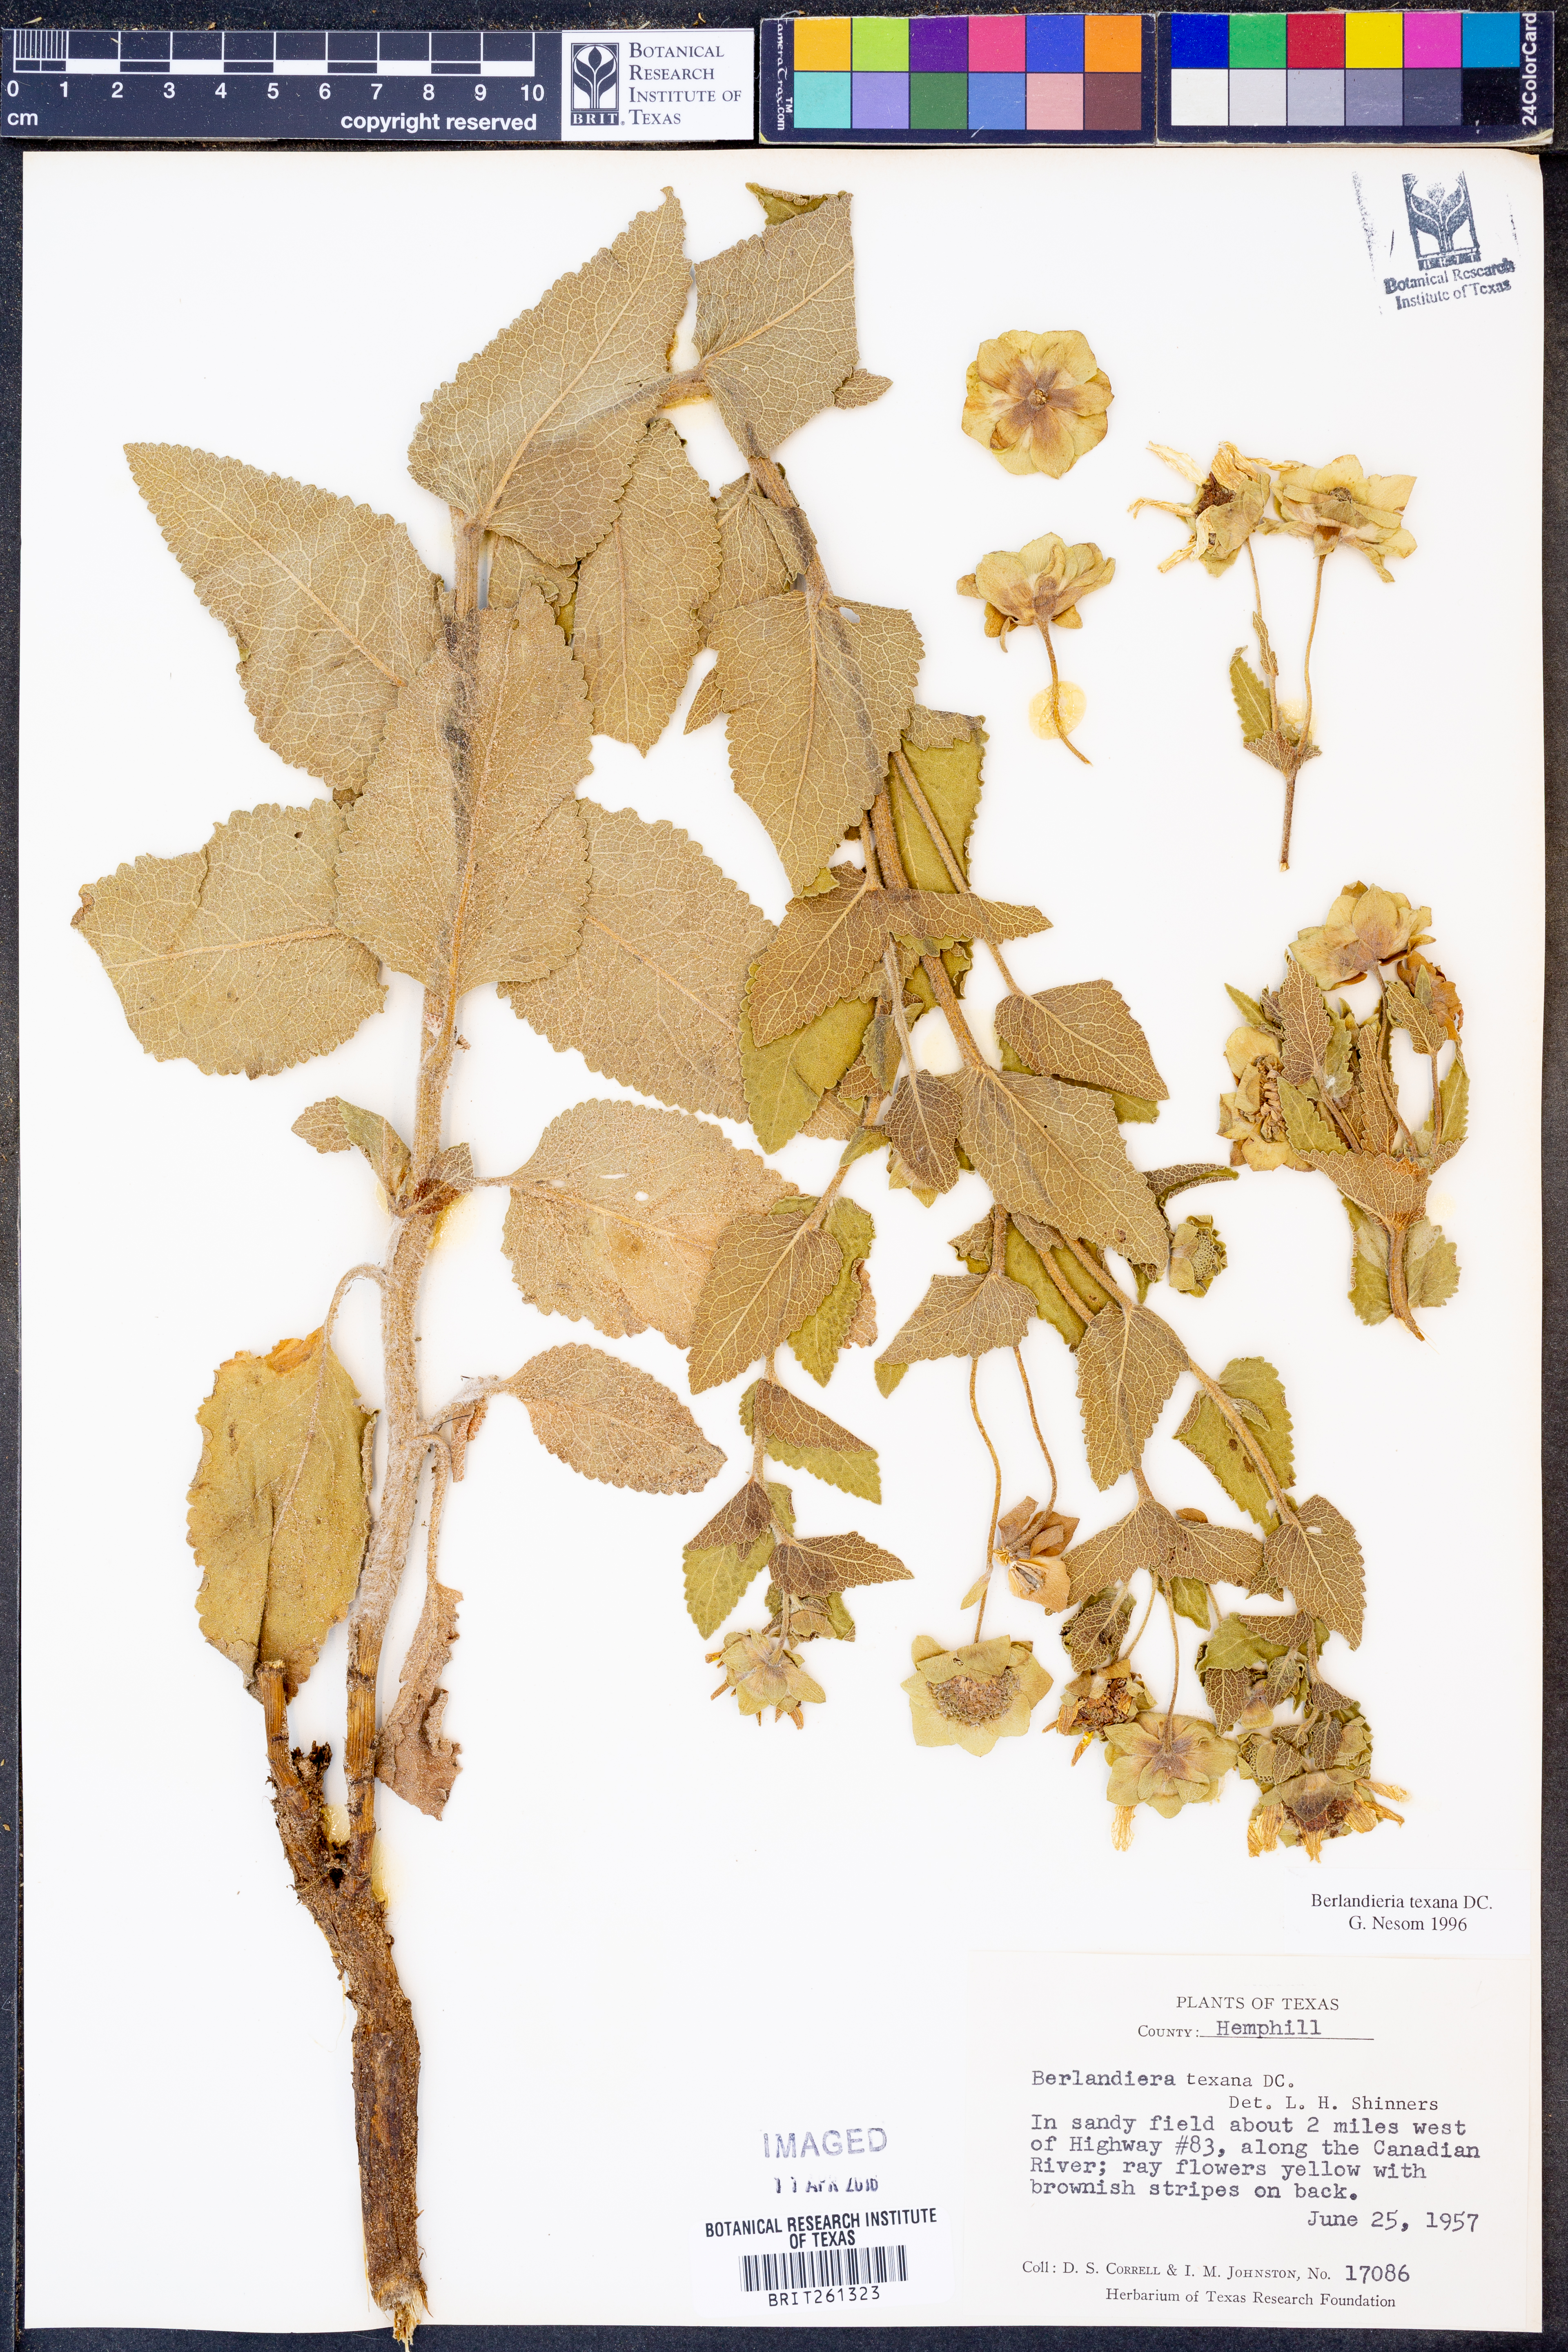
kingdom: Plantae
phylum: Tracheophyta
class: Magnoliopsida
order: Asterales
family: Asteraceae
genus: Berlandiera
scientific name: Berlandiera texana
